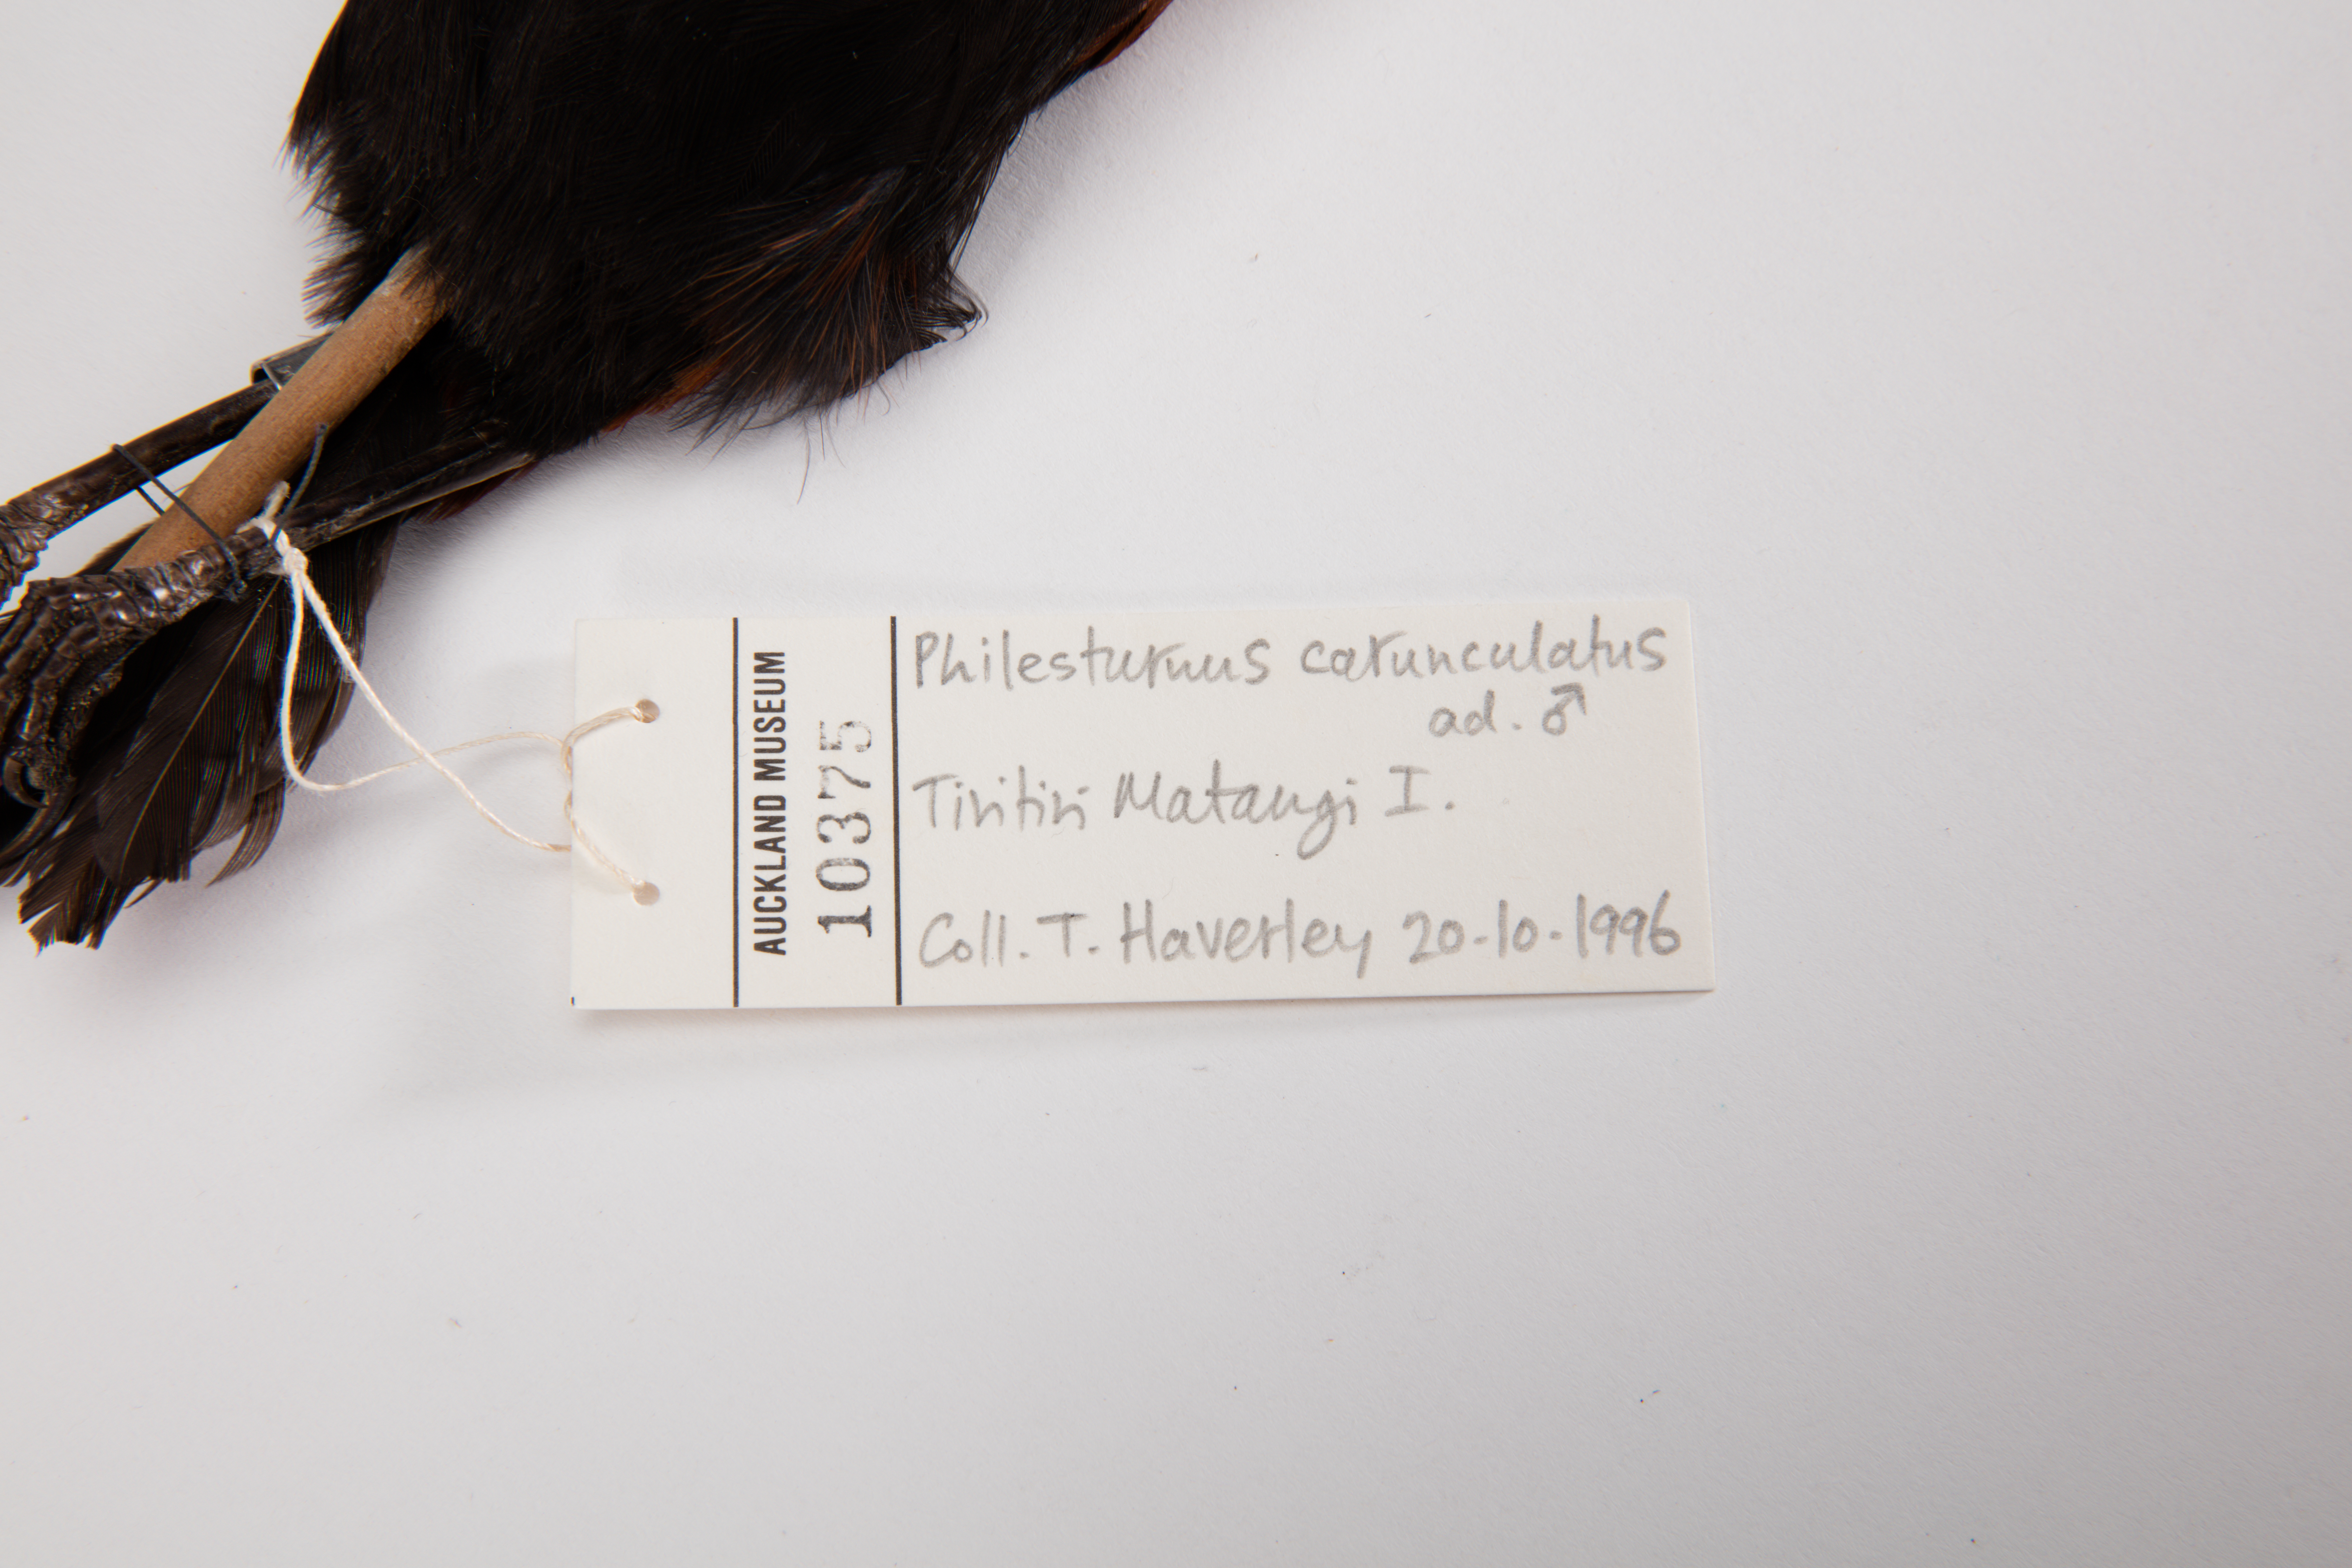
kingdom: Animalia
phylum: Chordata
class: Aves
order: Passeriformes
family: Callaeatidae
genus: Philesturnus
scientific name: Philesturnus carunculatus
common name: South island saddleback
